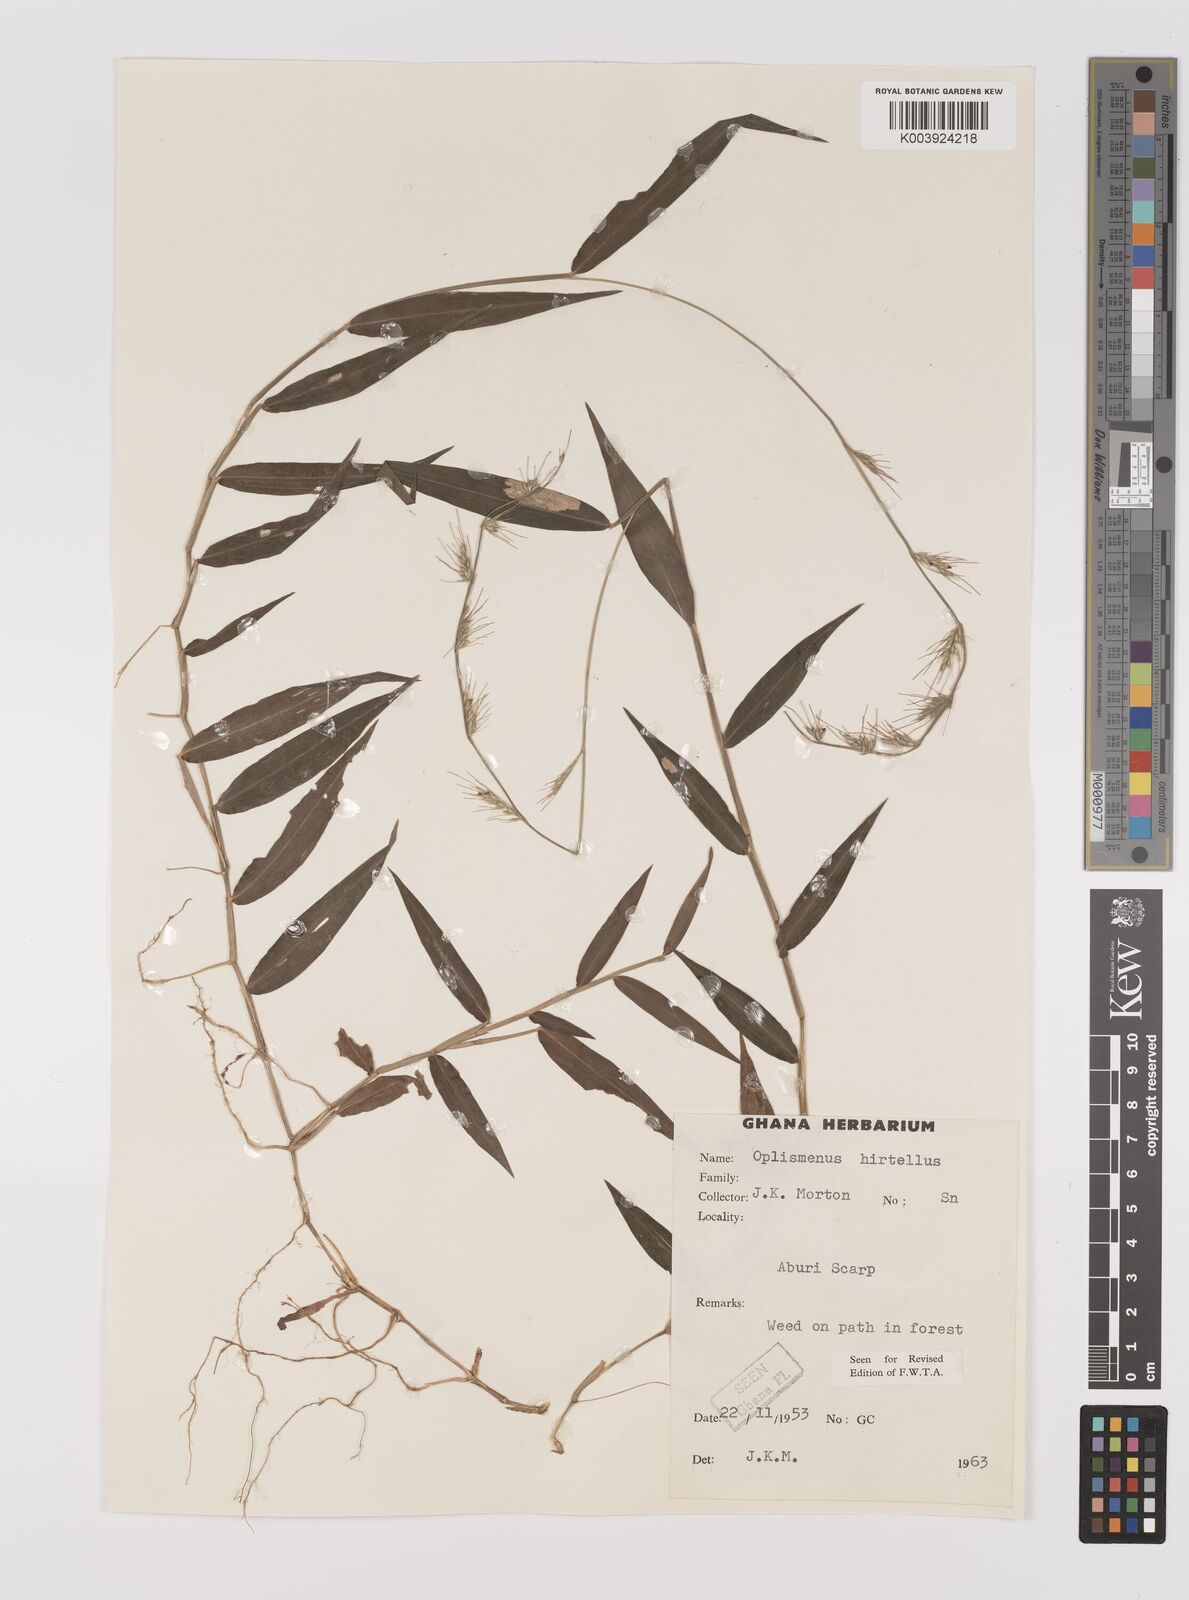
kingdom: Plantae
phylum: Tracheophyta
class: Liliopsida
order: Poales
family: Poaceae
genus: Oplismenus
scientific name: Oplismenus hirtellus
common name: Basketgrass
